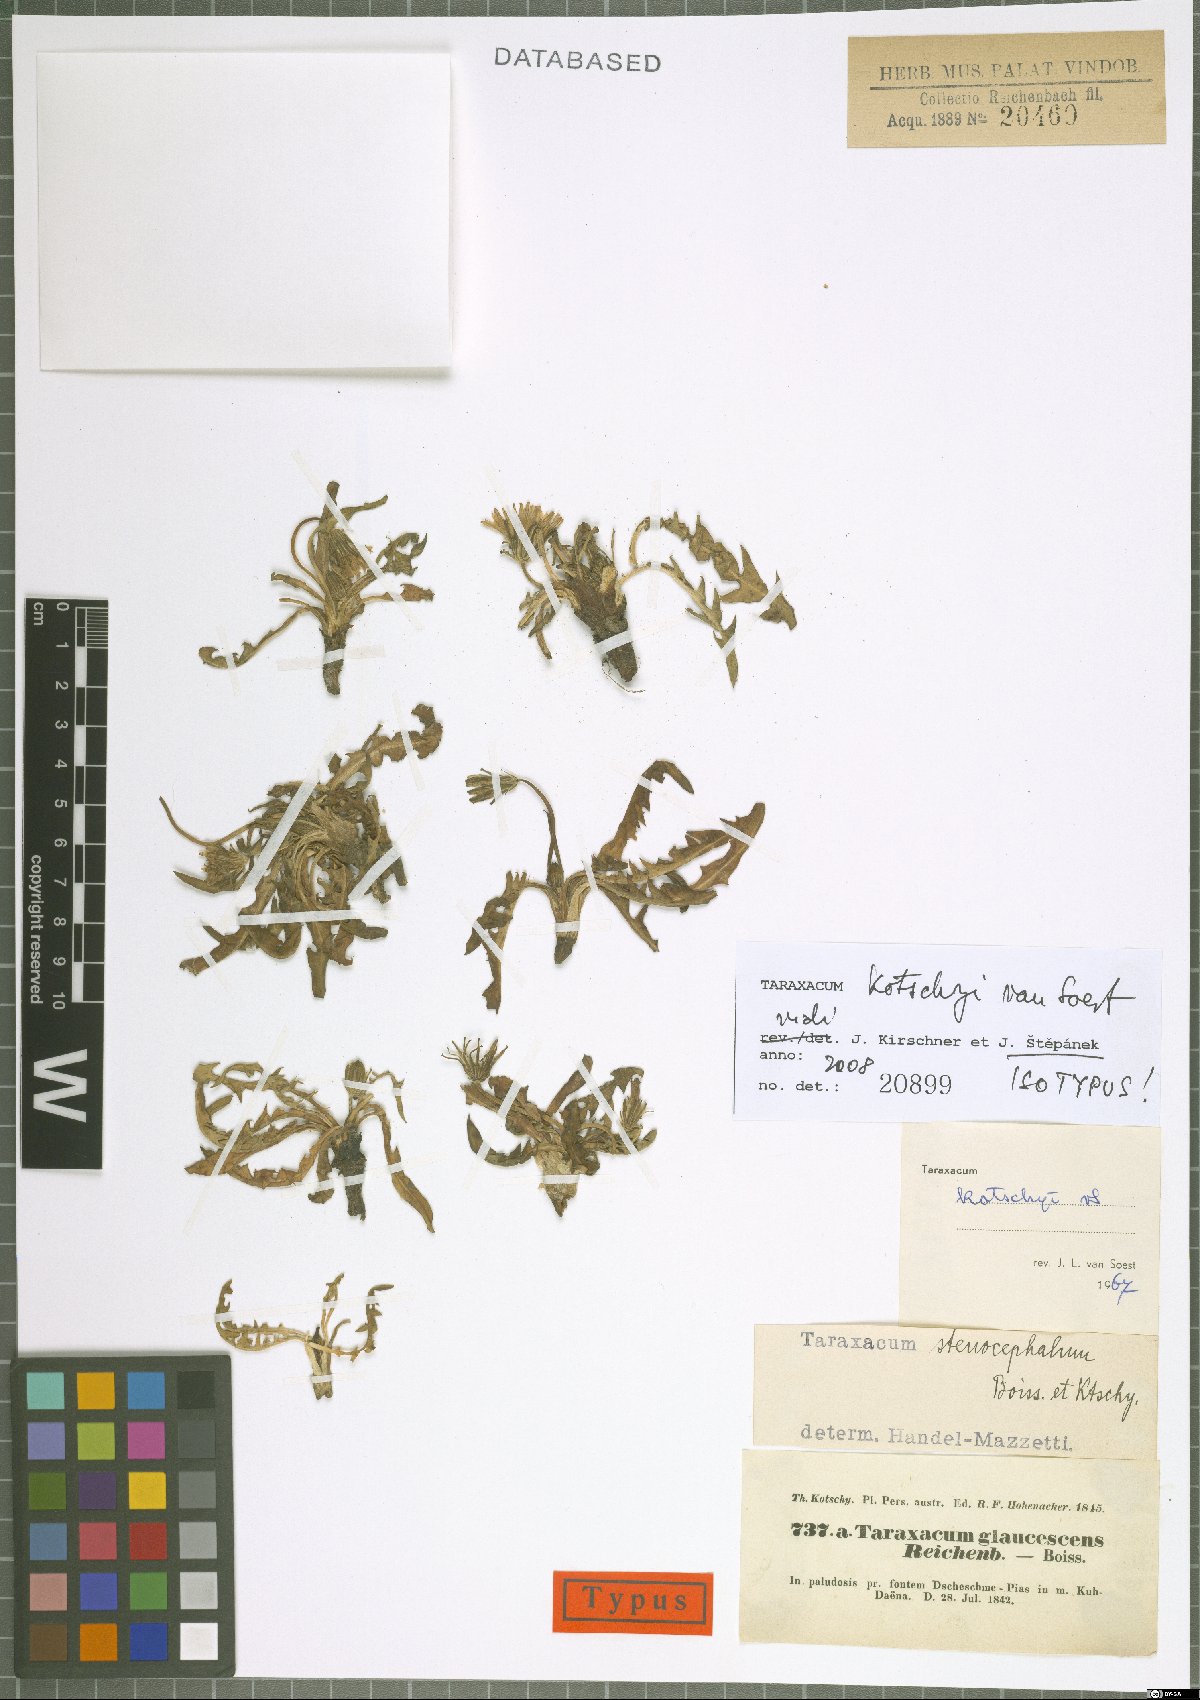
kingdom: Plantae
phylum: Tracheophyta
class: Magnoliopsida
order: Asterales
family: Asteraceae
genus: Taraxacum
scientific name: Taraxacum kotschyi
